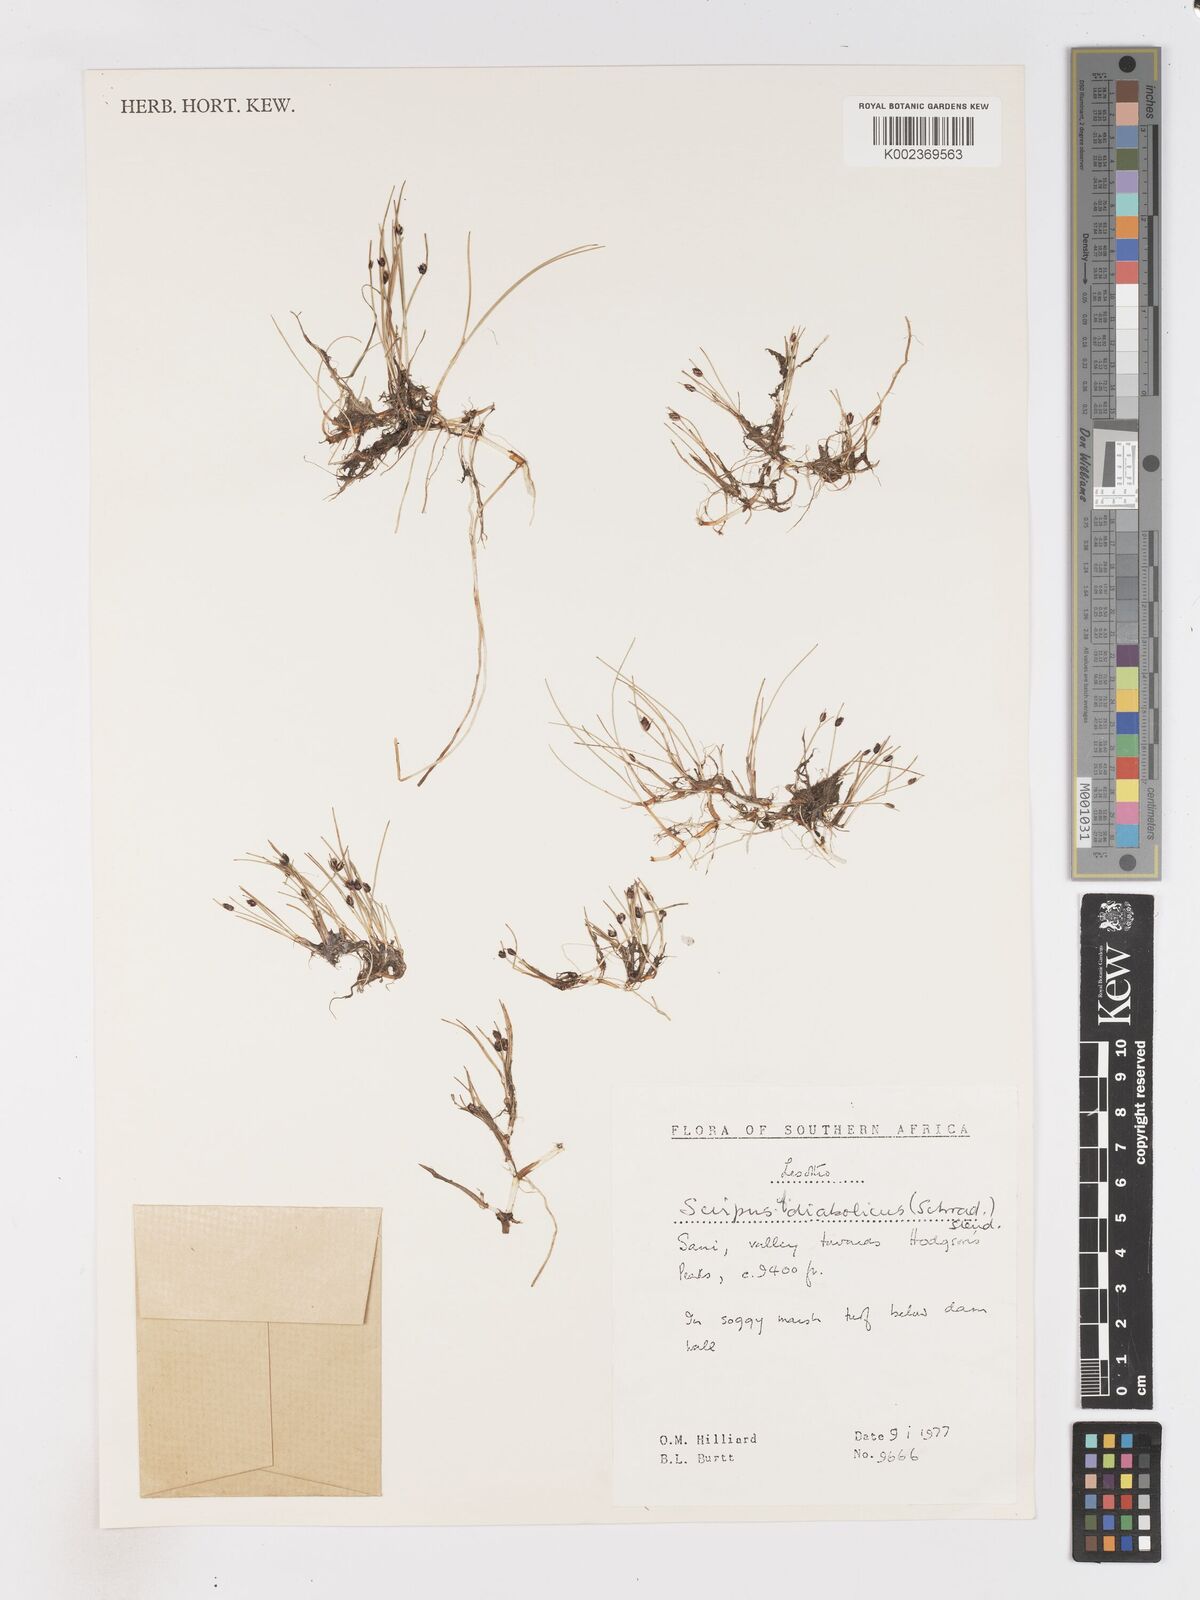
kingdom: Plantae
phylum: Tracheophyta
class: Liliopsida
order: Poales
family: Cyperaceae
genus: Isolepis
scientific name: Isolepis
